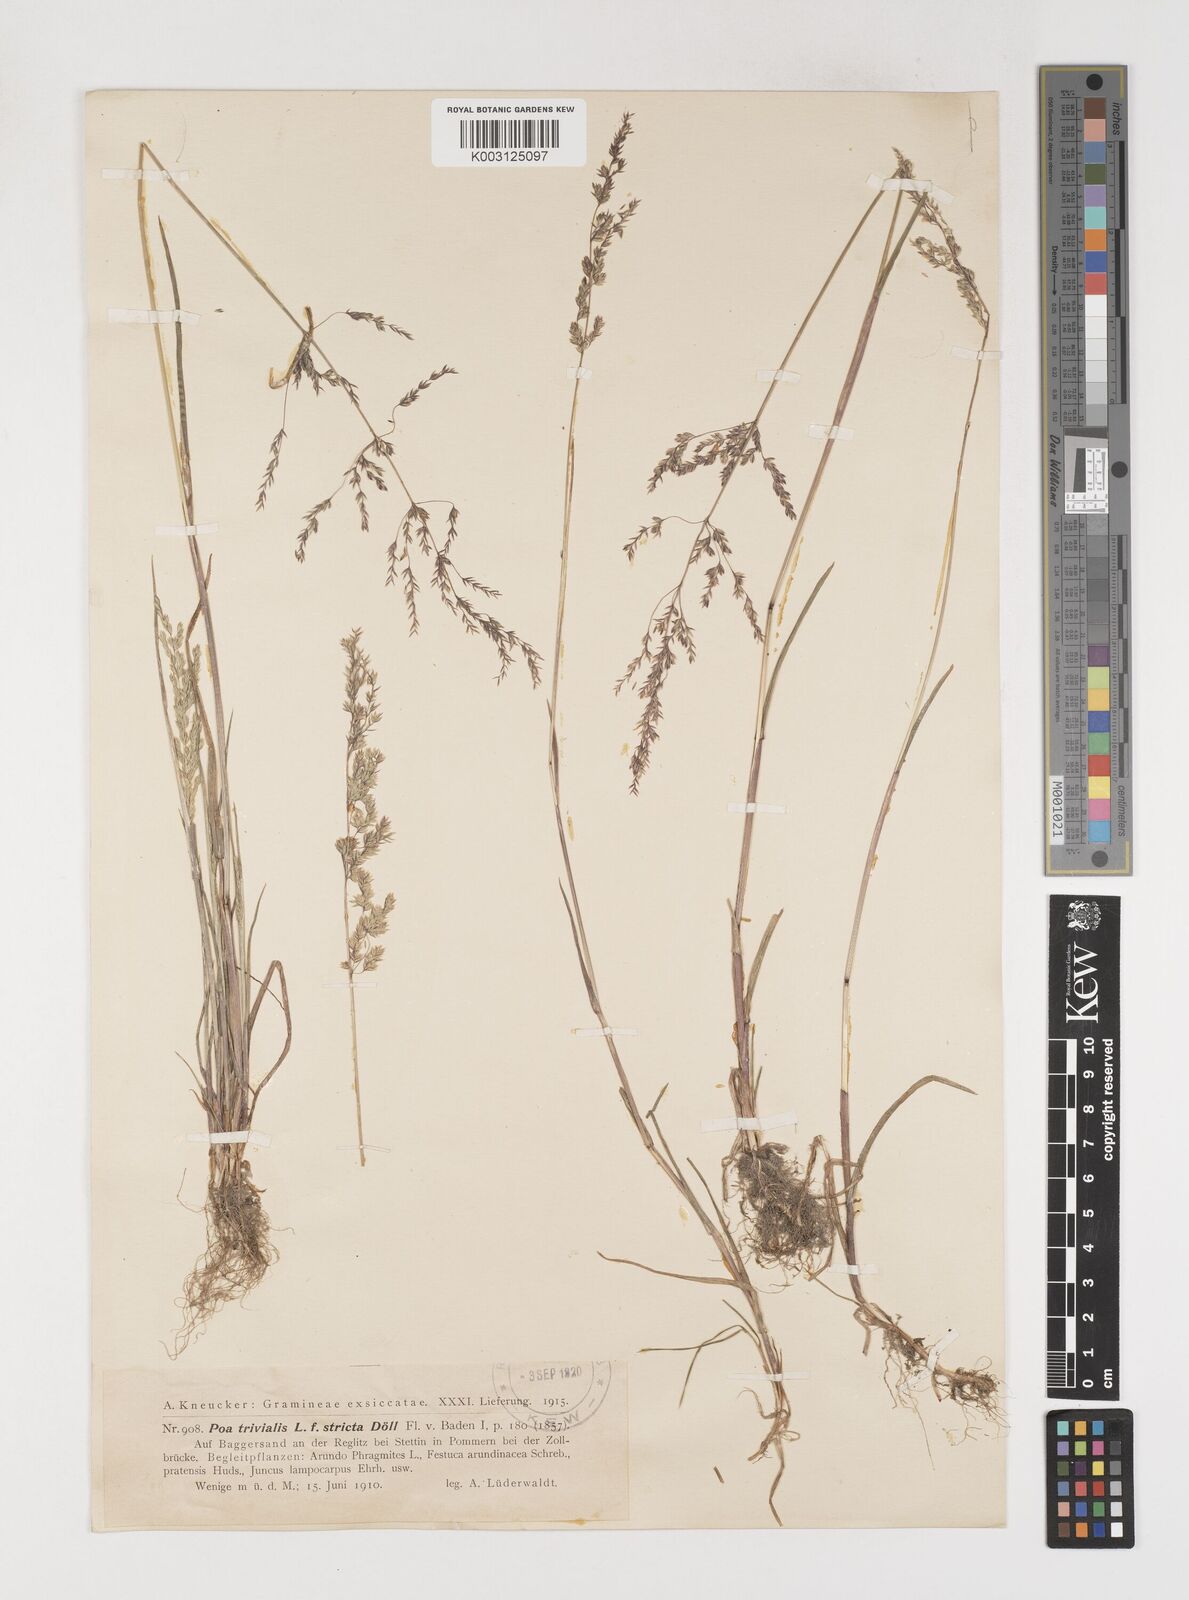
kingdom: Plantae
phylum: Tracheophyta
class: Liliopsida
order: Poales
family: Poaceae
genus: Poa
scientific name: Poa trivialis
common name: Rough bluegrass
